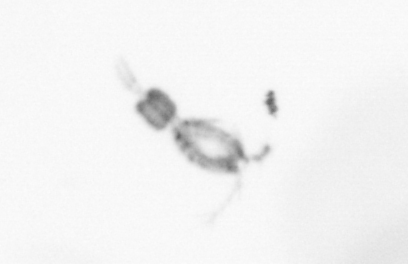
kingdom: Animalia
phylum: Arthropoda
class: Copepoda
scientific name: Copepoda
